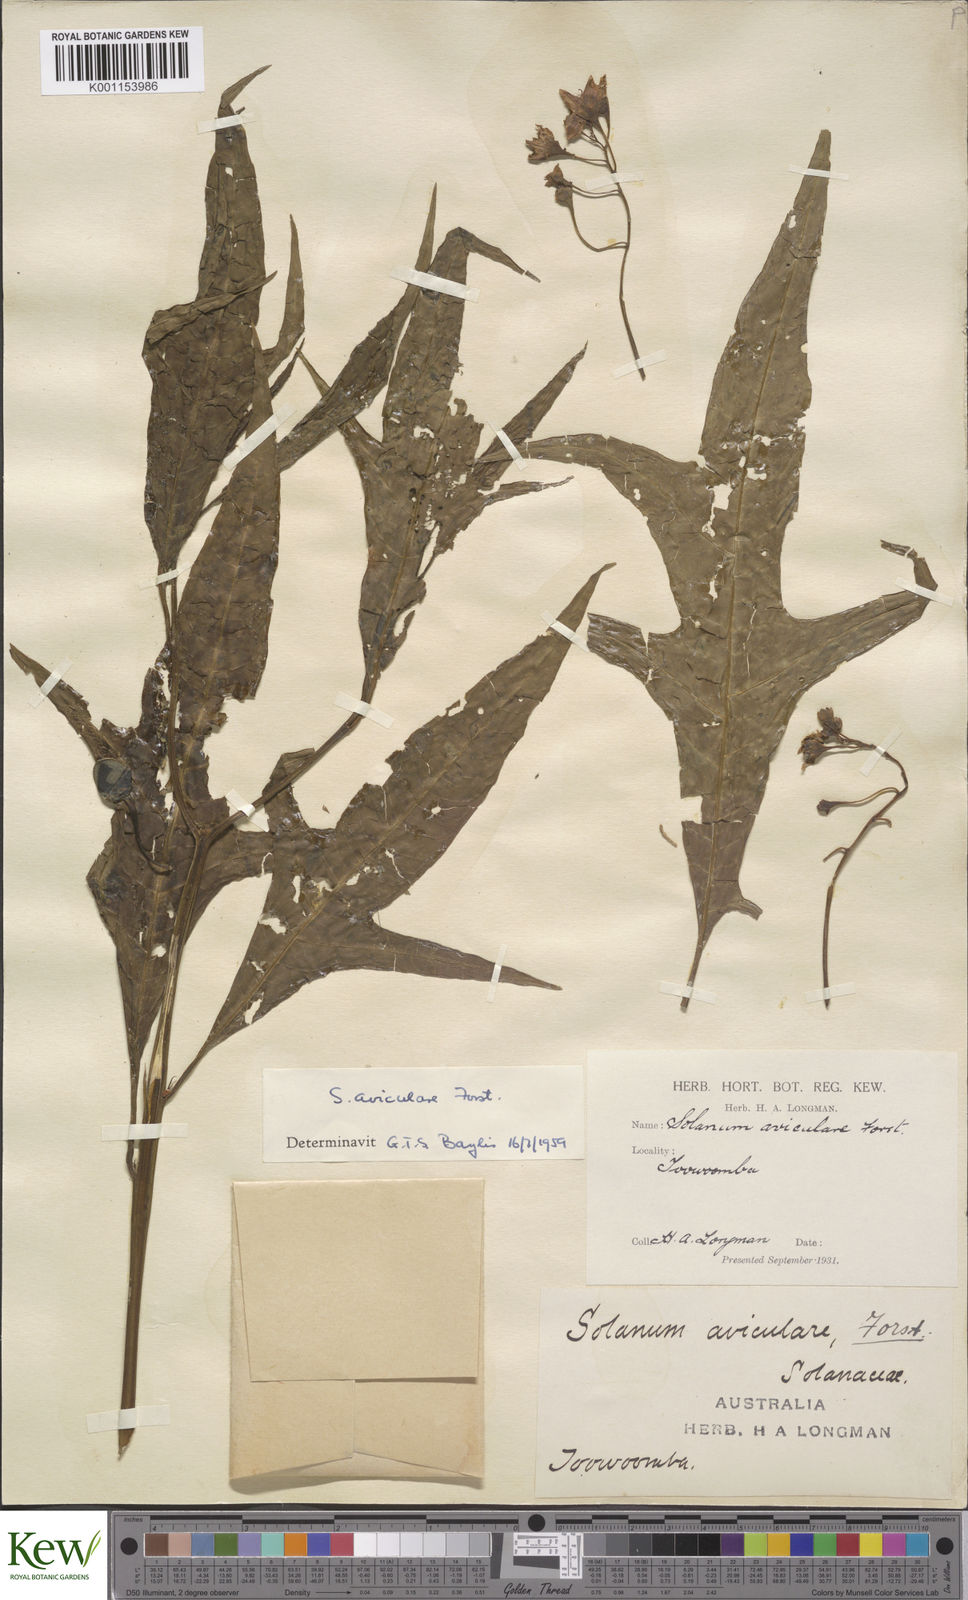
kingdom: Plantae
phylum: Tracheophyta
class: Magnoliopsida
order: Solanales
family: Solanaceae
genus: Solanum
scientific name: Solanum aviculare
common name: New zealand nightshade
